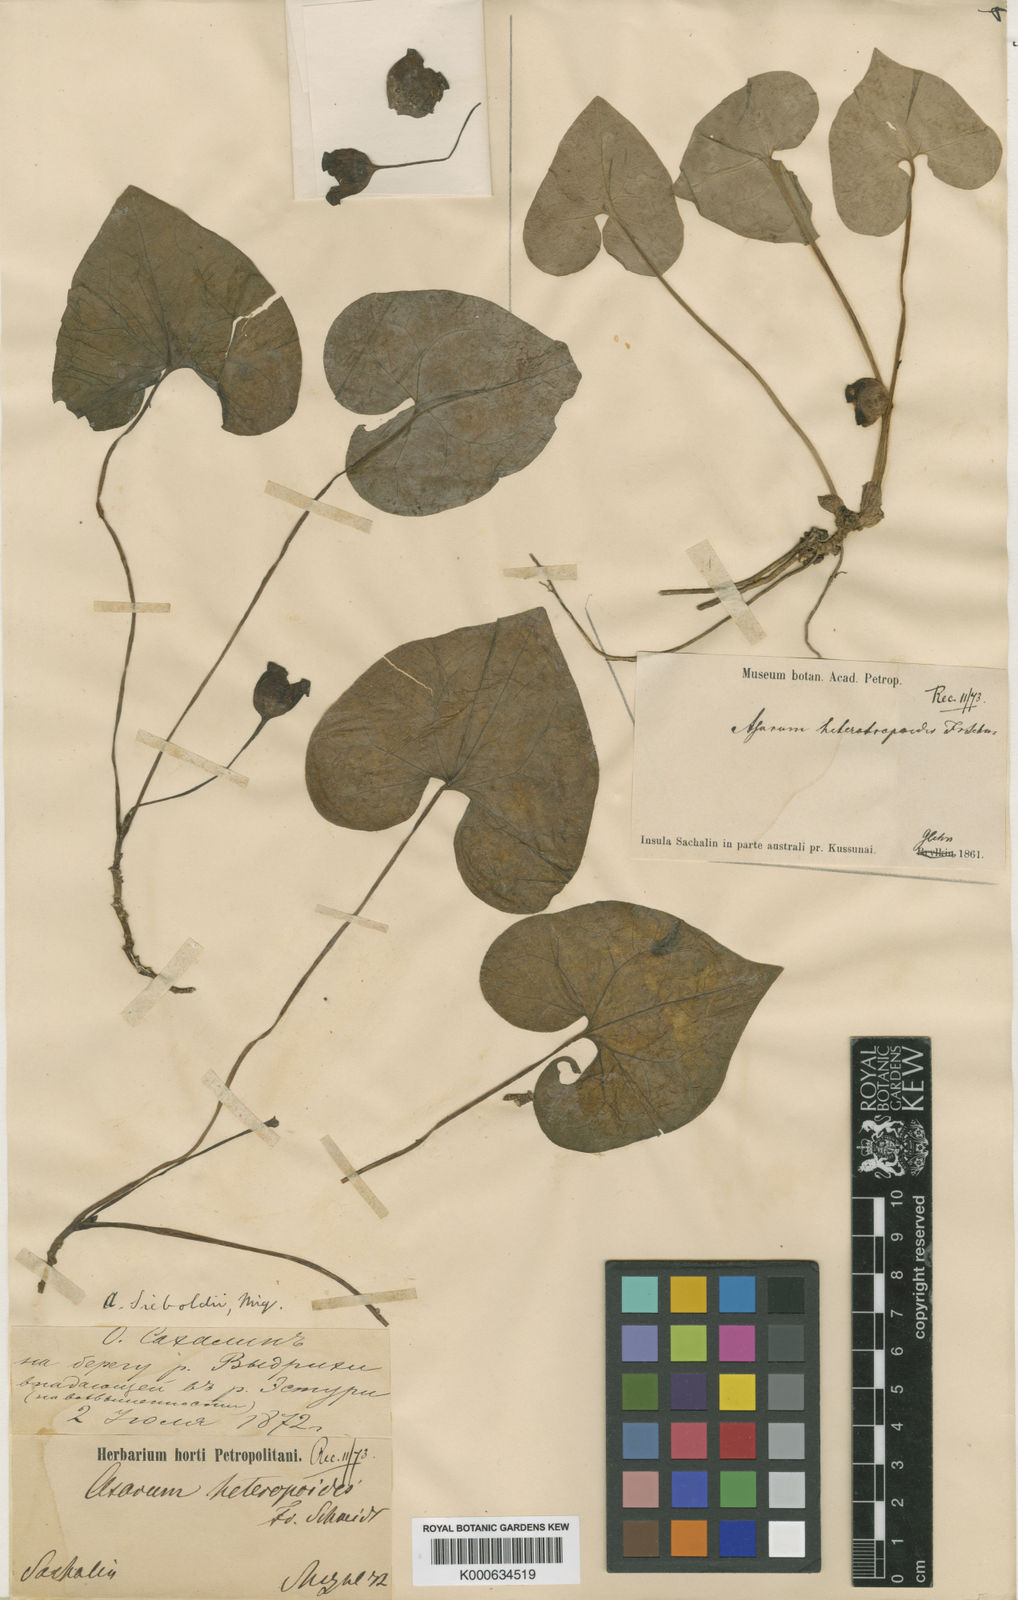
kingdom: Plantae
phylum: Tracheophyta
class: Magnoliopsida
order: Piperales
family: Aristolochiaceae
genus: Asarum
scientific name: Asarum sieboldii
